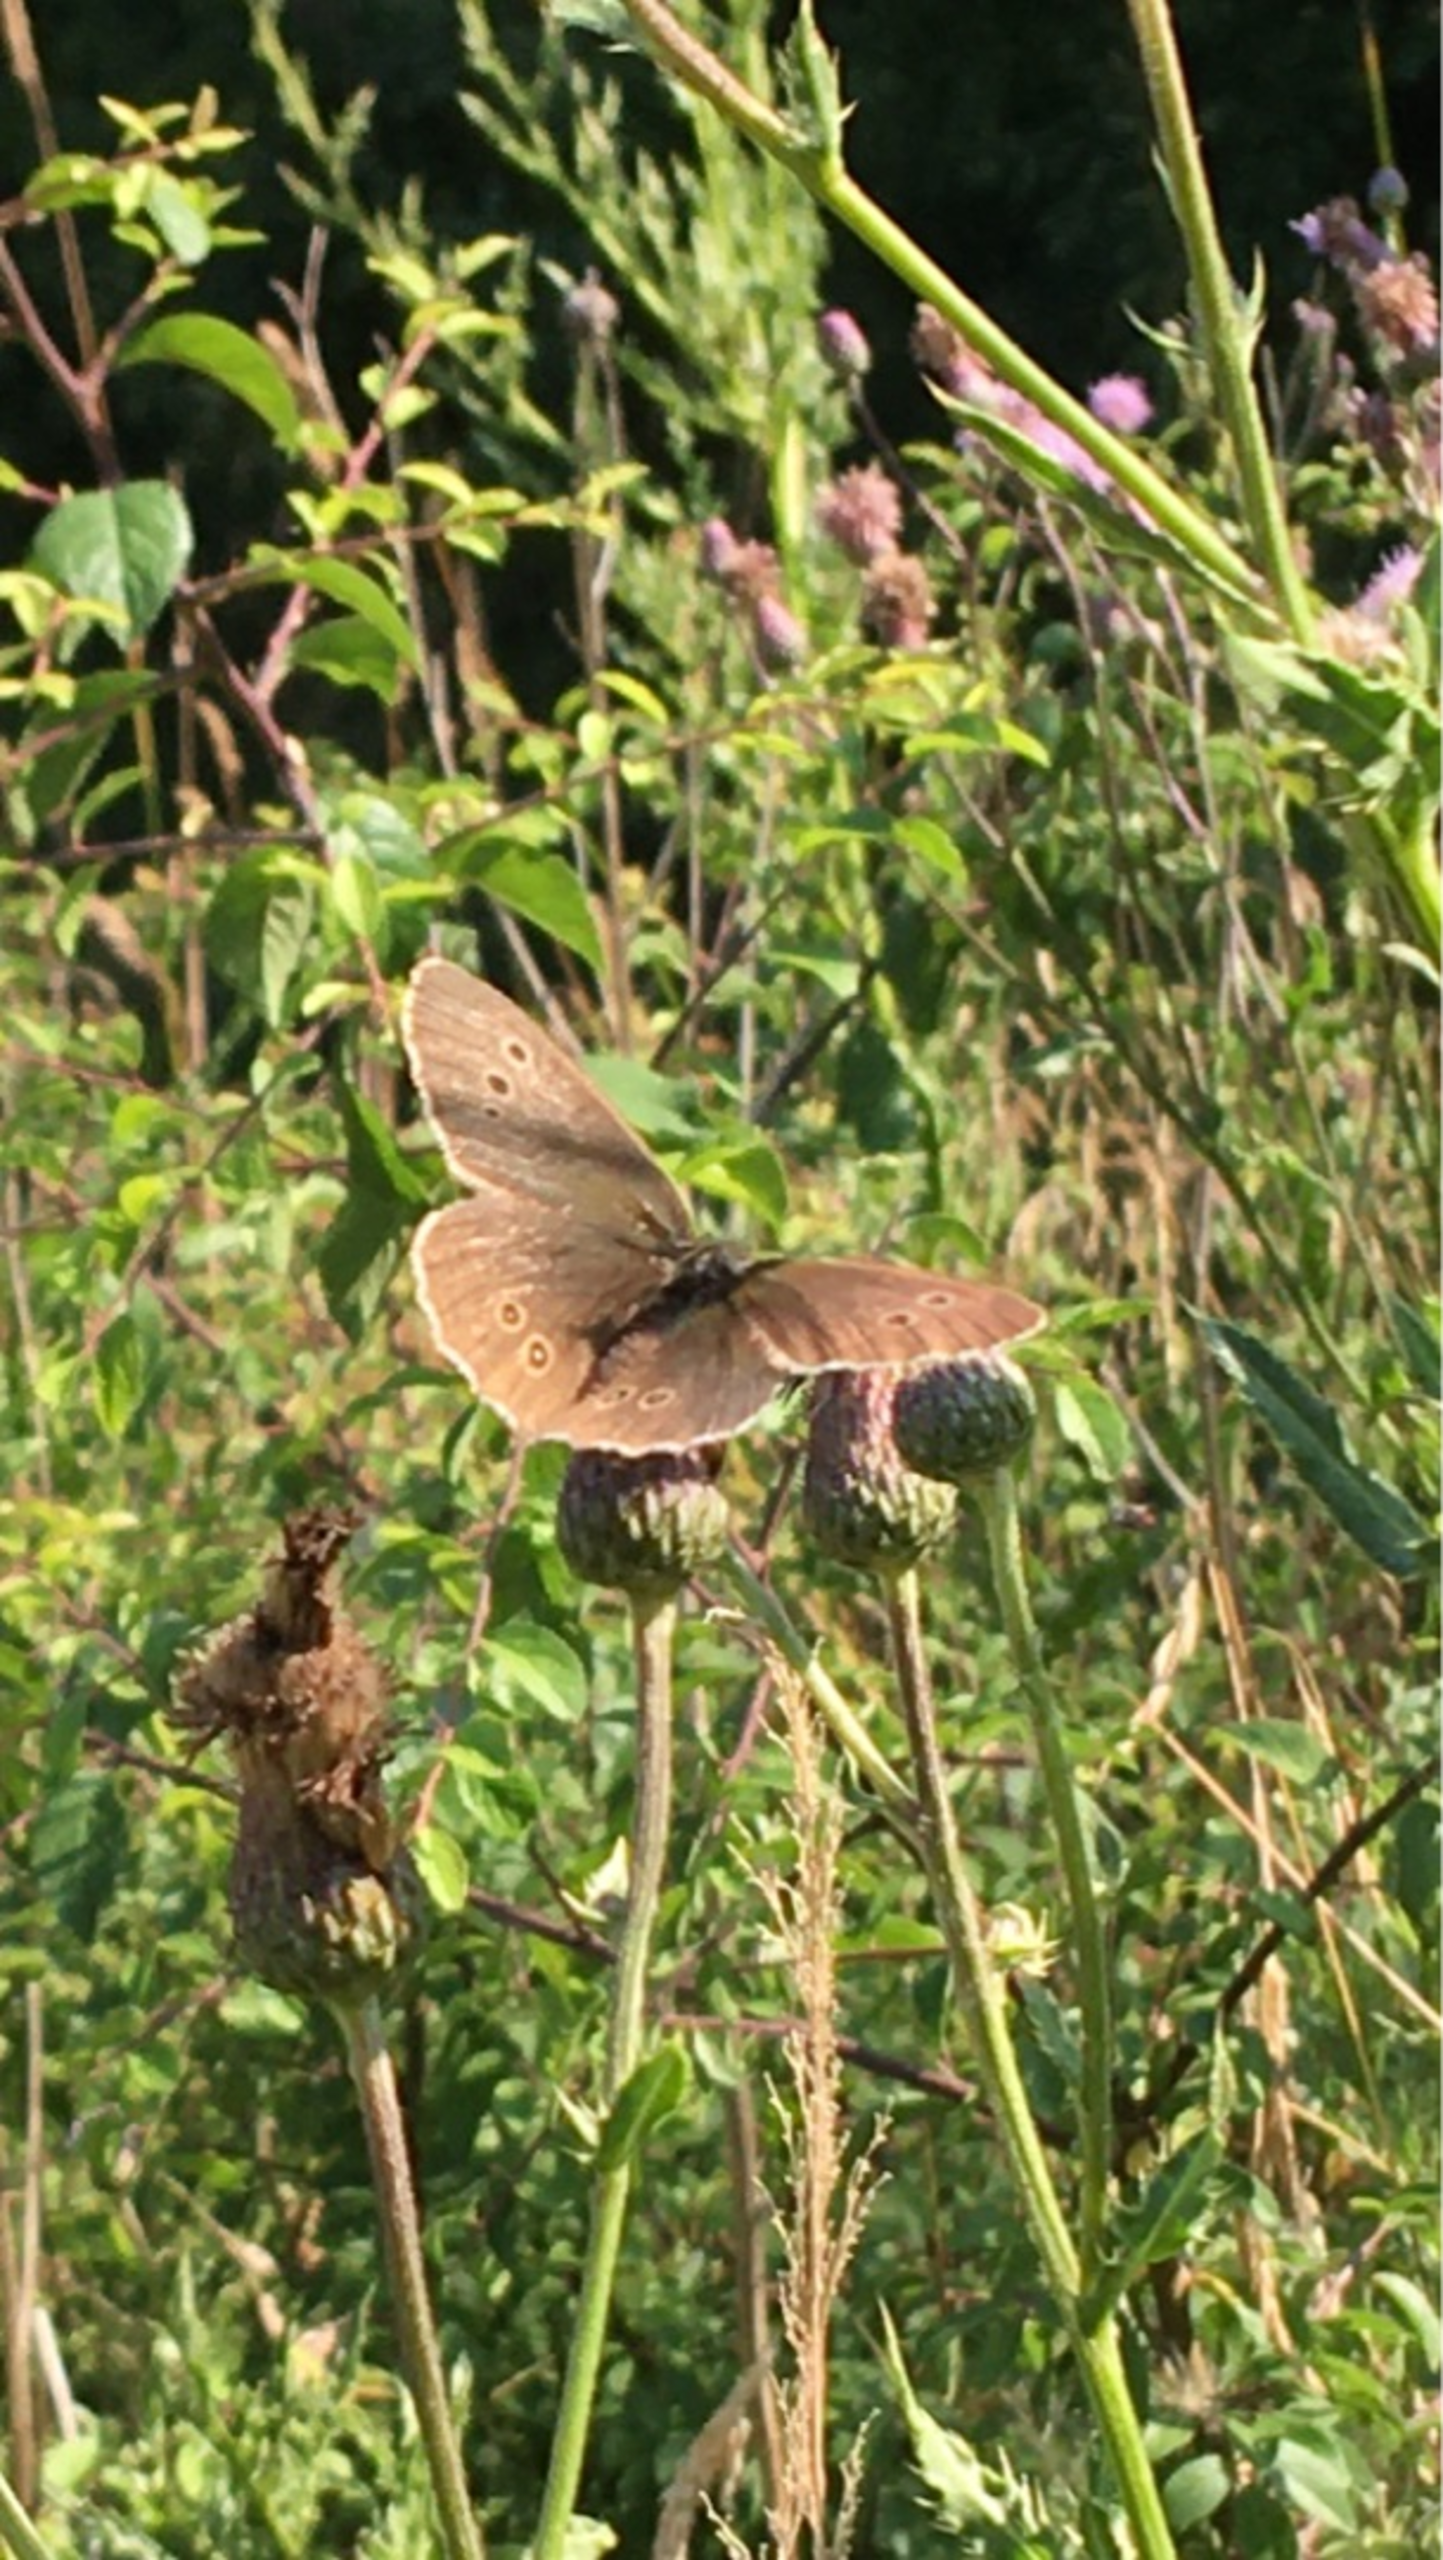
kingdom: Animalia
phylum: Arthropoda
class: Insecta
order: Lepidoptera
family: Nymphalidae
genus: Aphantopus
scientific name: Aphantopus hyperantus
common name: Engrandøje
